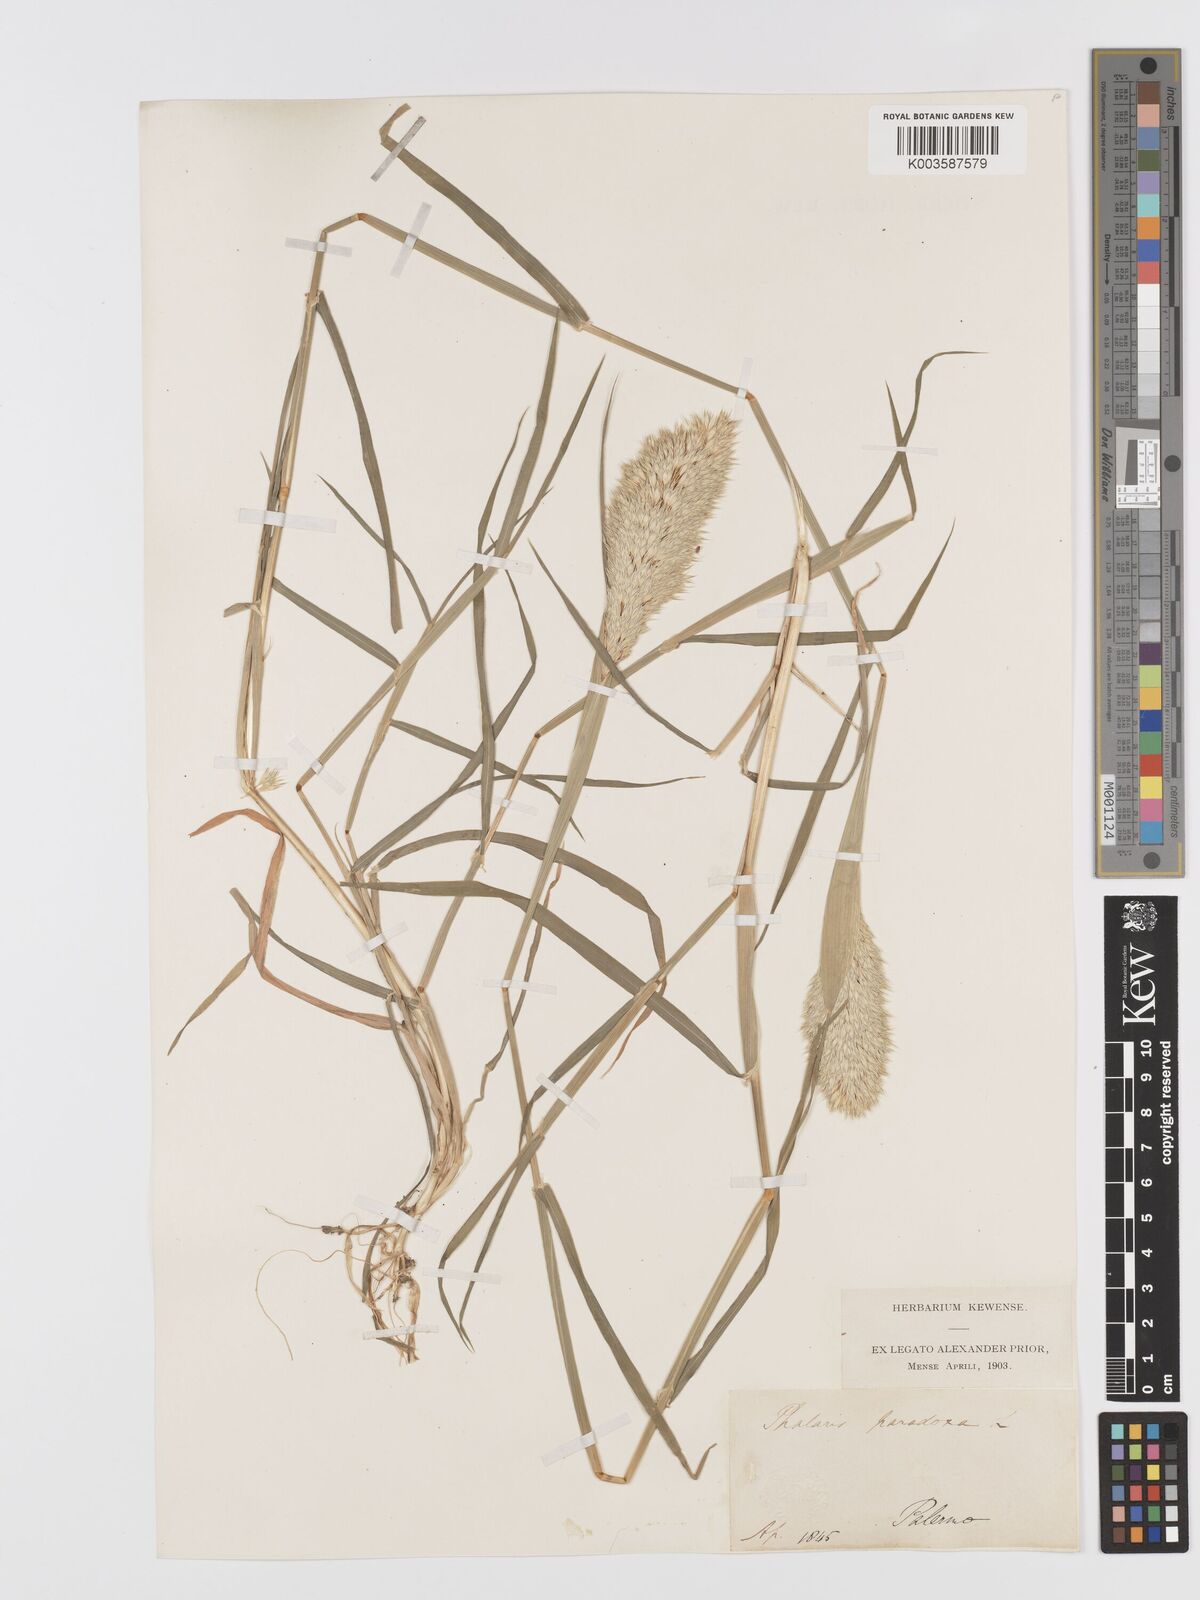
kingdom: Plantae
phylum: Tracheophyta
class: Liliopsida
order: Poales
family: Poaceae
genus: Phalaris
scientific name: Phalaris paradoxa
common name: Awned canary-grass
